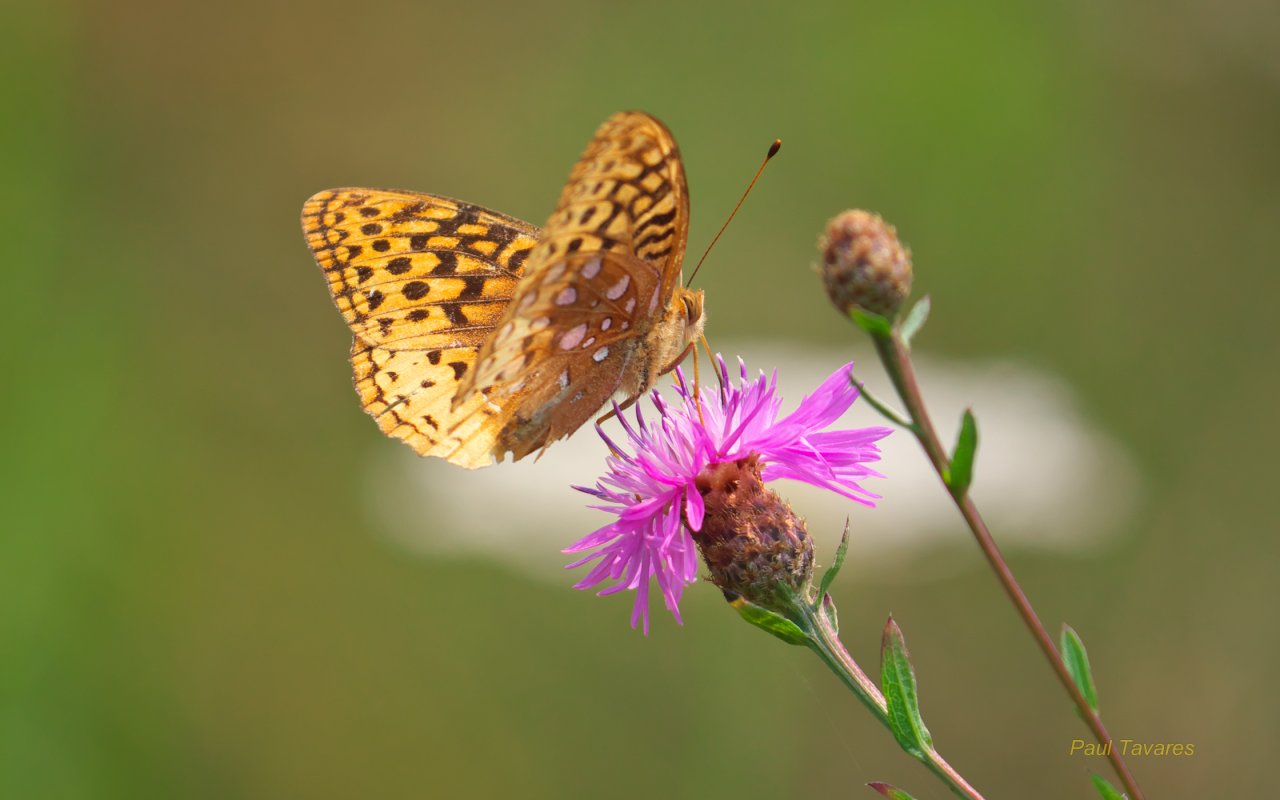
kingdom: Animalia
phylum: Arthropoda
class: Insecta
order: Lepidoptera
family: Nymphalidae
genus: Speyeria
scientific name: Speyeria cybele
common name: Great Spangled Fritillary
